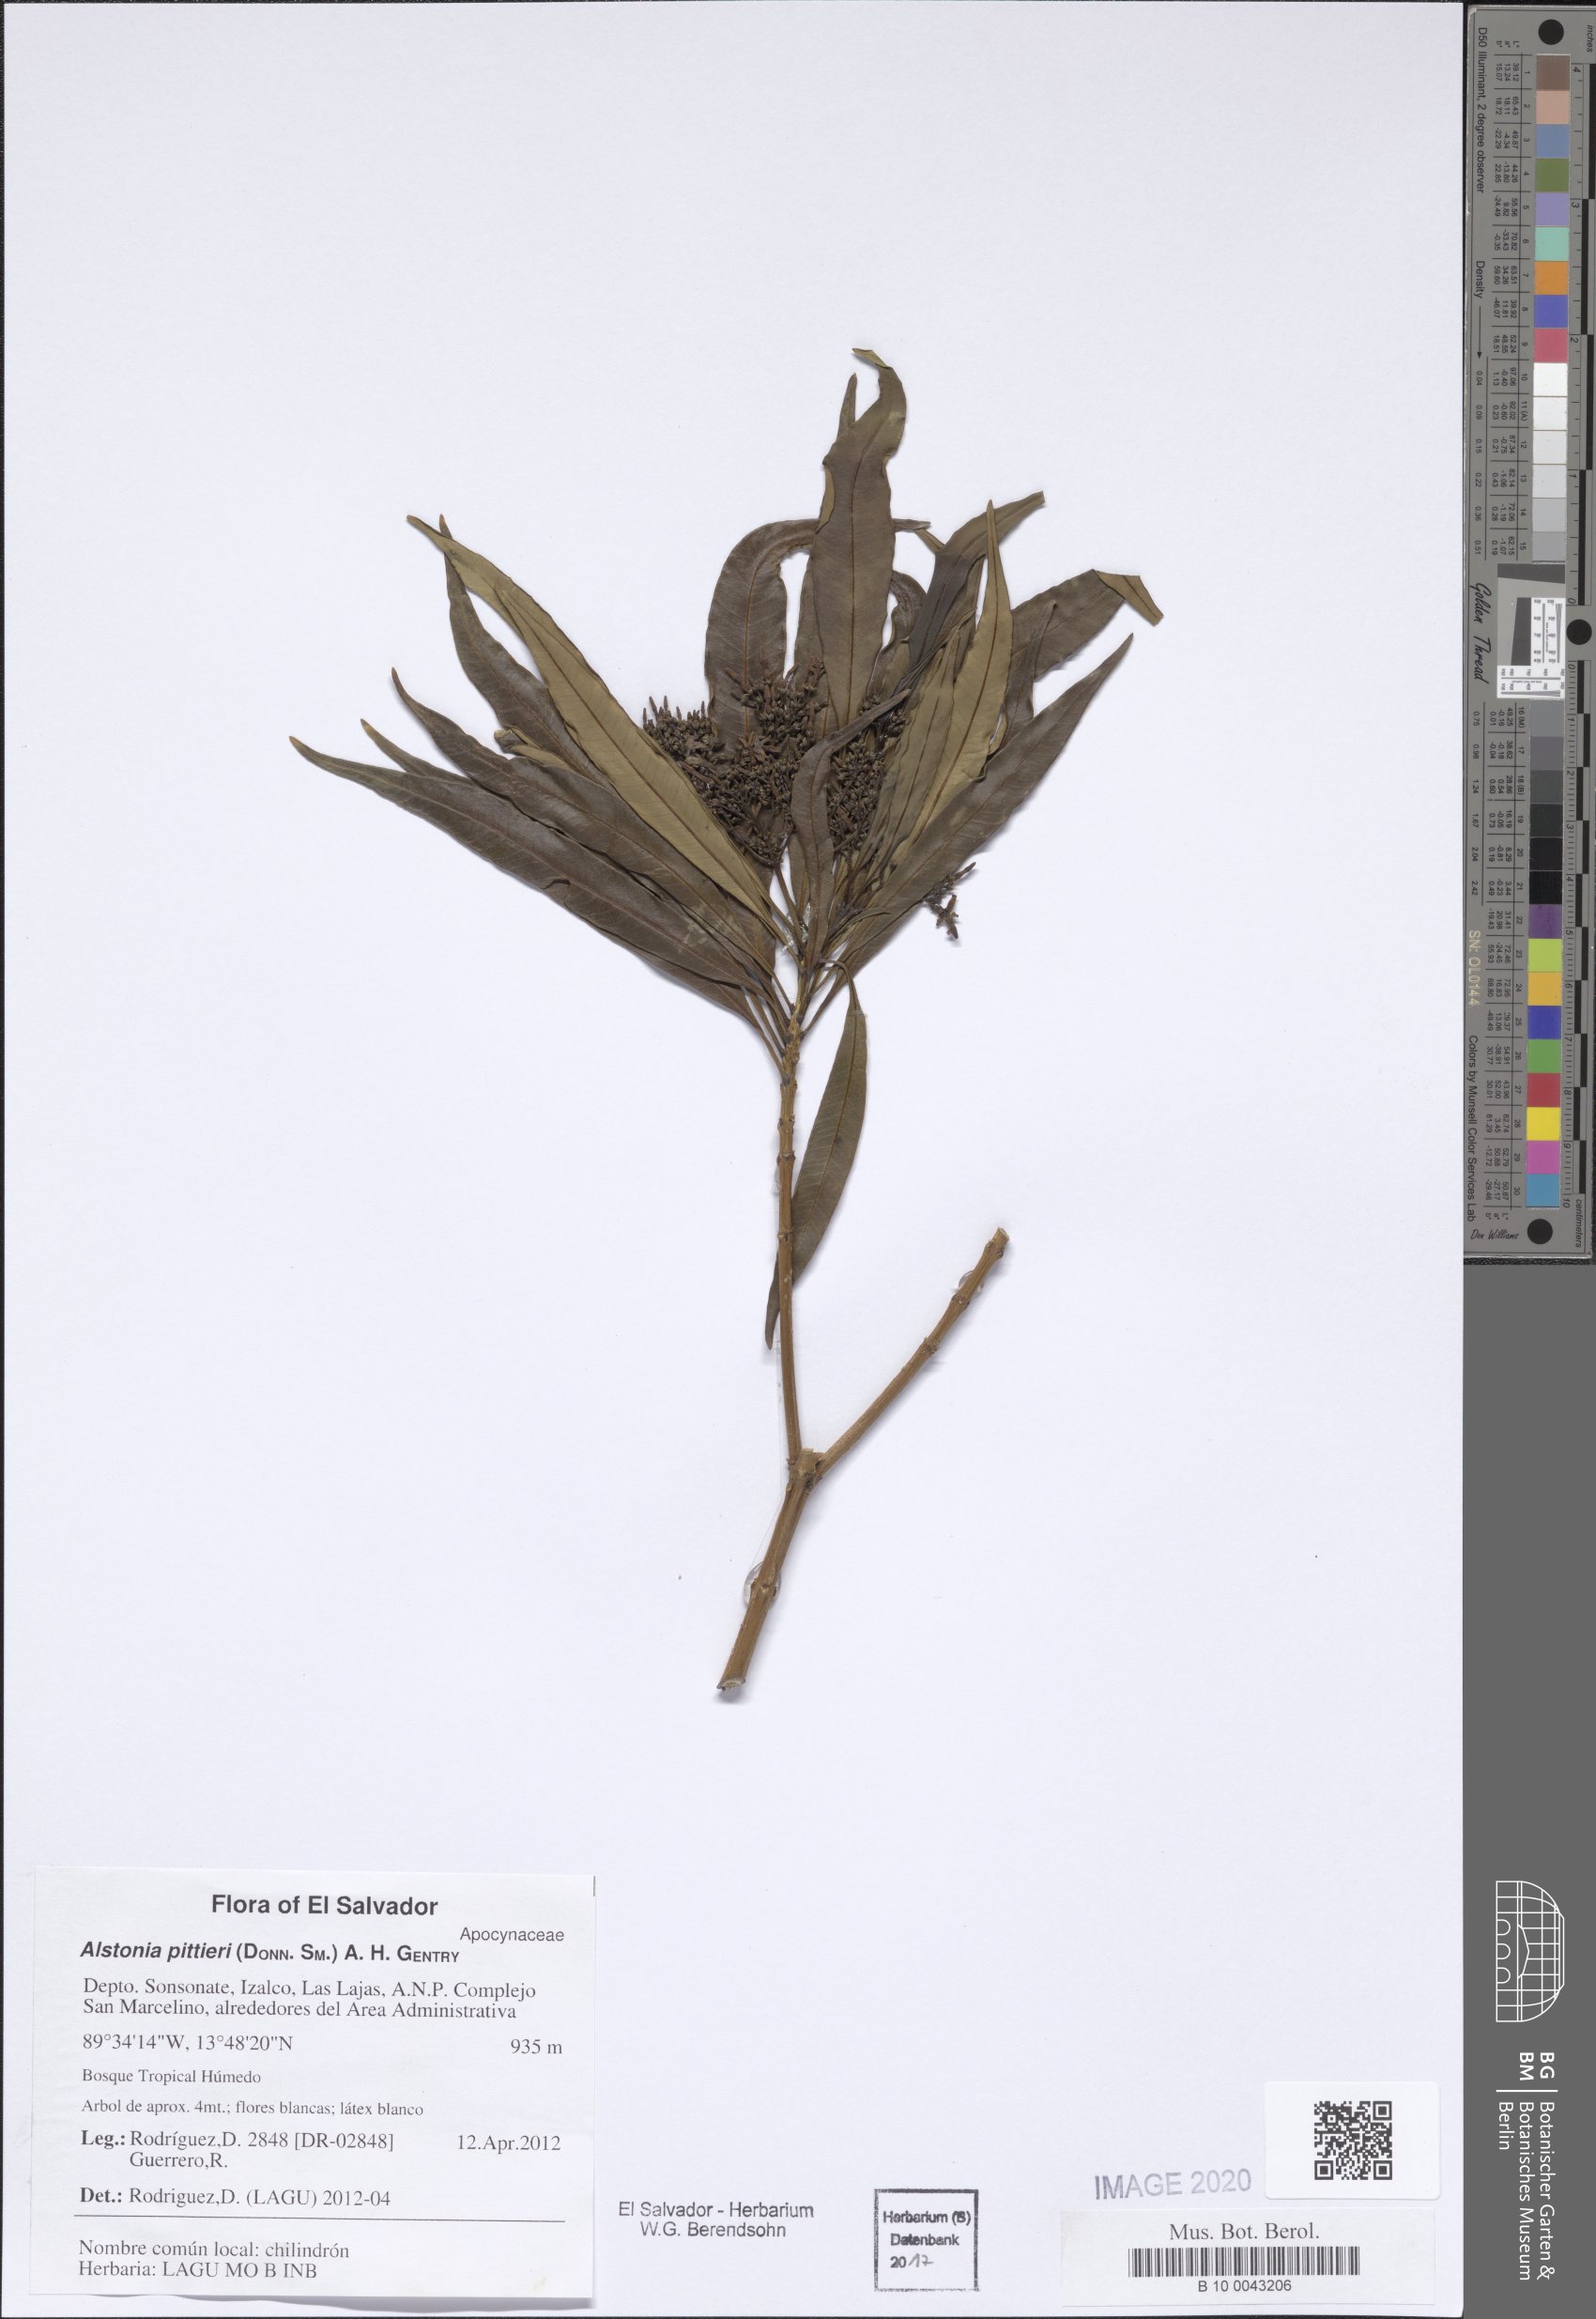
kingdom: Plantae
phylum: Tracheophyta
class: Magnoliopsida
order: Gentianales
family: Apocynaceae
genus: Tonduzia
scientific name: Tonduzia longifolia
